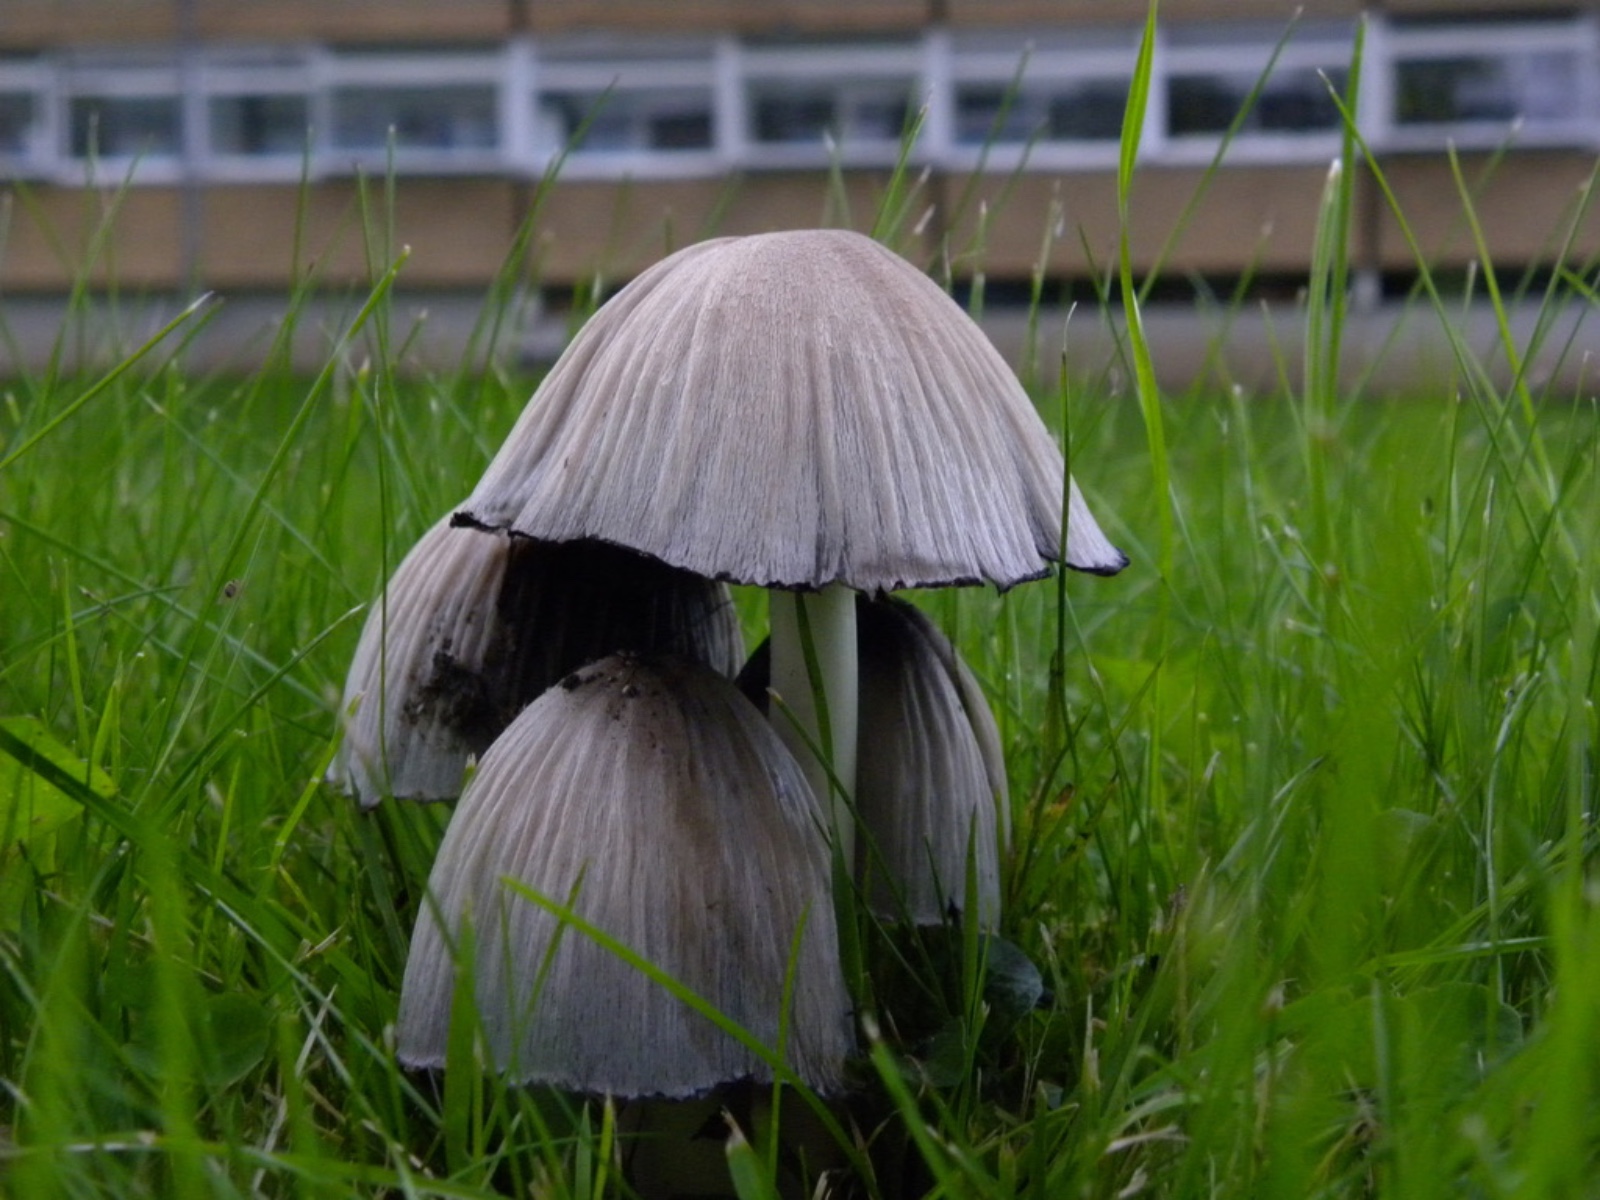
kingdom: Fungi
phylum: Basidiomycota
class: Agaricomycetes
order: Agaricales
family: Psathyrellaceae
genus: Coprinopsis
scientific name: Coprinopsis atramentaria
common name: almindelig blækhat
